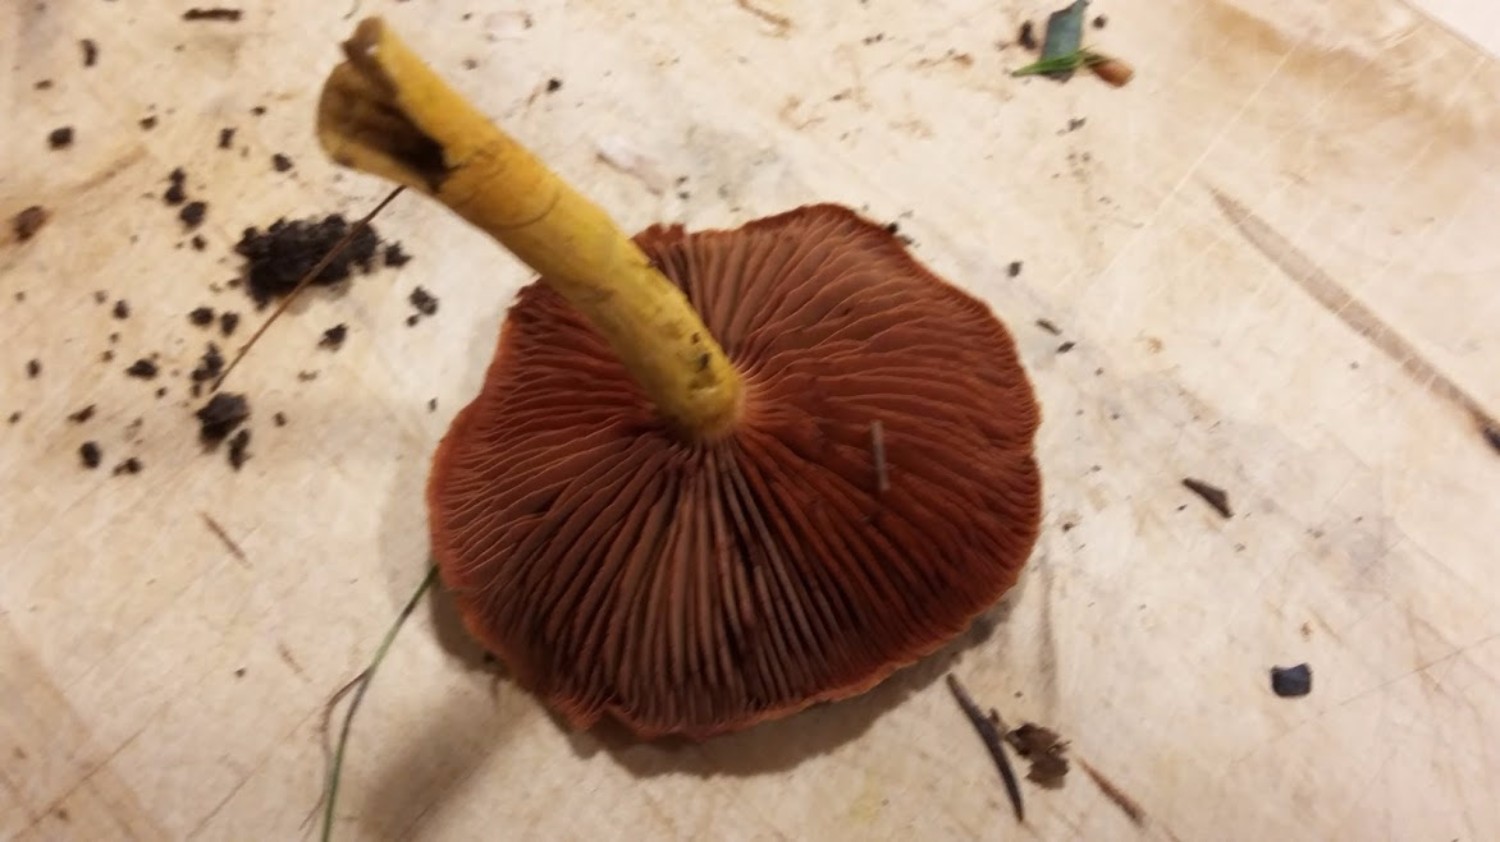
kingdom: Fungi
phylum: Basidiomycota
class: Agaricomycetes
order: Agaricales
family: Cortinariaceae
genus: Cortinarius
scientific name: Cortinarius
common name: cinnoberbladet slørhat
